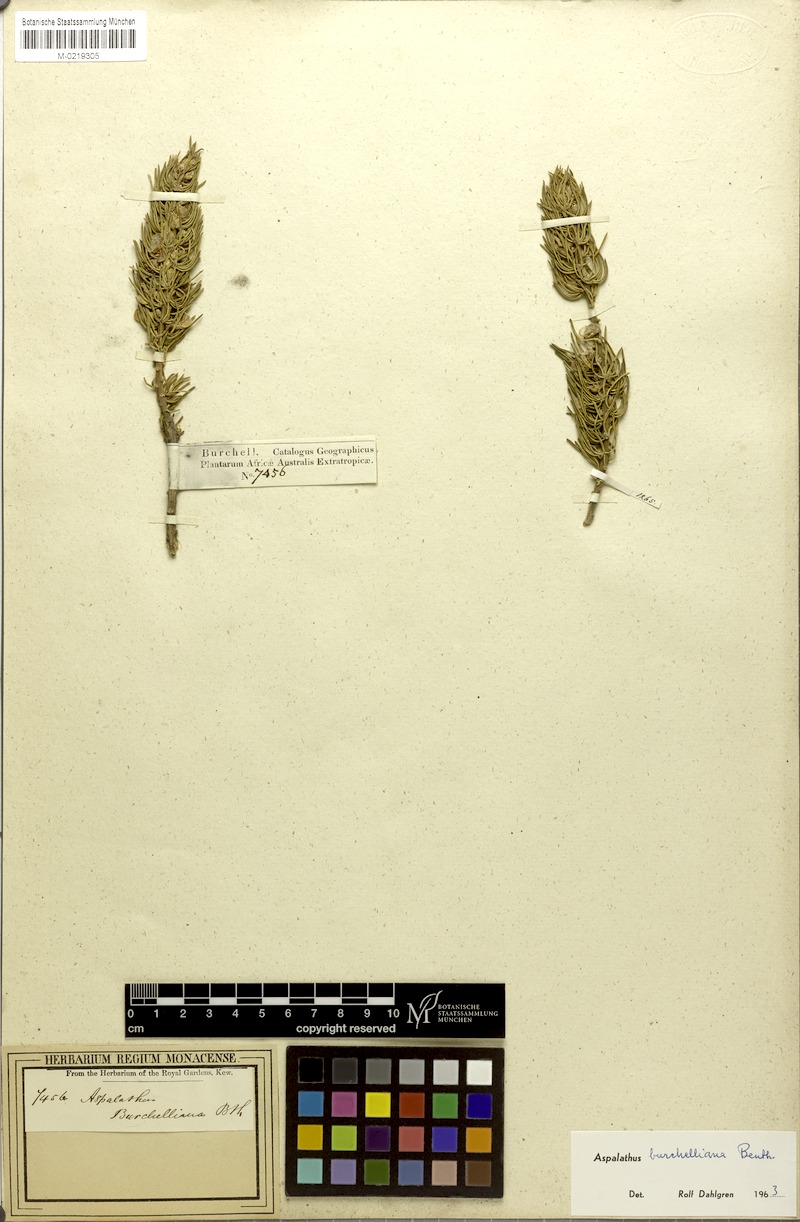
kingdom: Plantae
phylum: Tracheophyta
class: Magnoliopsida
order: Fabales
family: Fabaceae
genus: Aspalathus
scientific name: Aspalathus burchelliana
